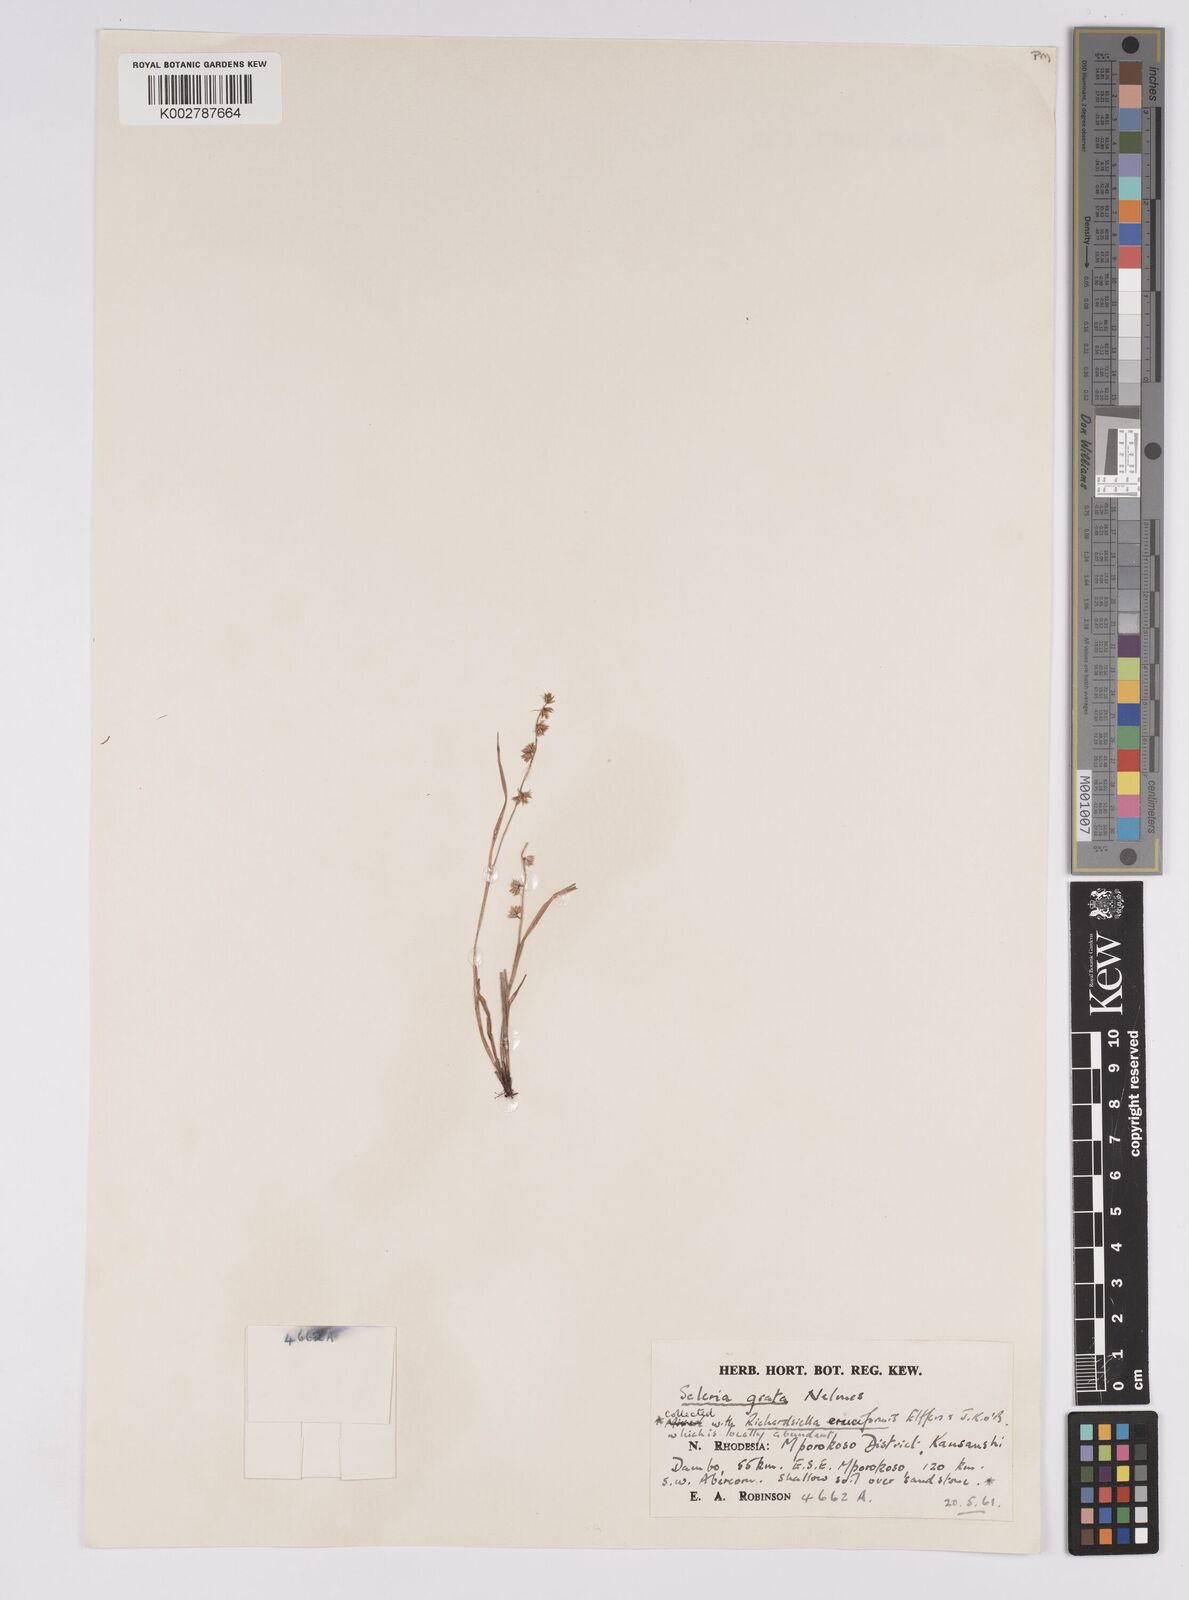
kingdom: Plantae
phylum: Tracheophyta
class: Liliopsida
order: Poales
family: Cyperaceae
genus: Scleria
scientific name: Scleria melanotricha
